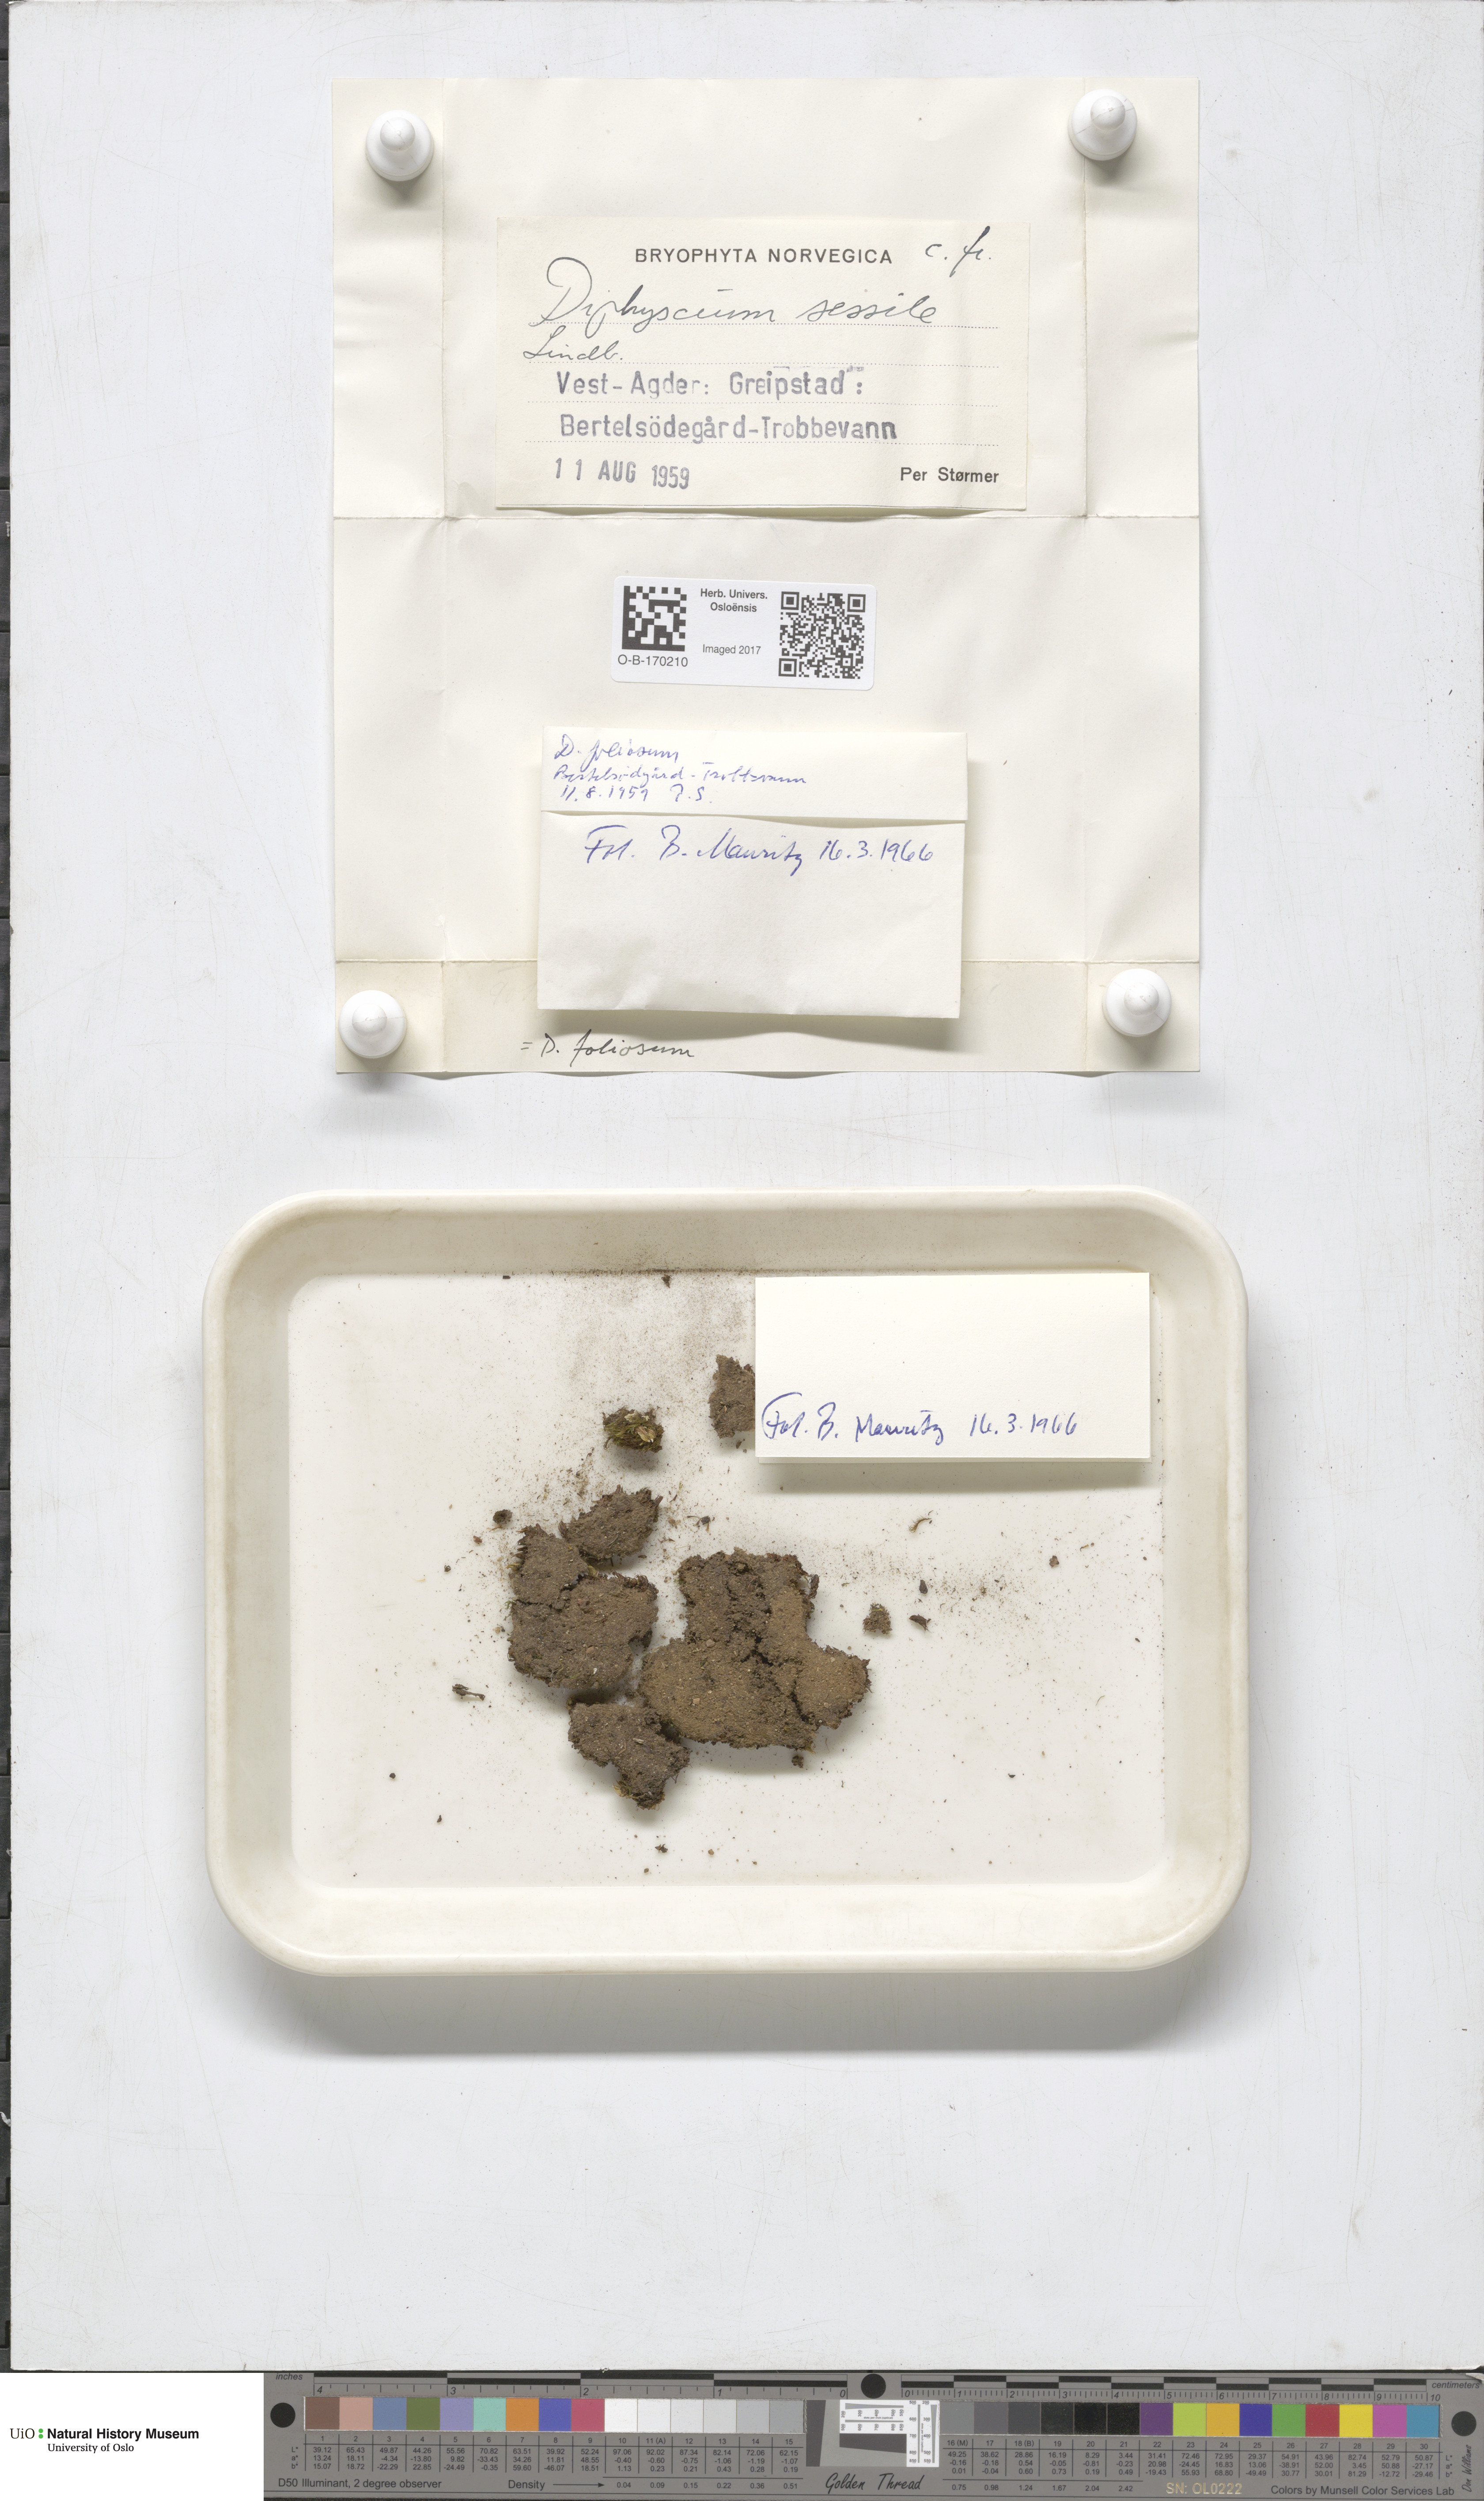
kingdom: Plantae
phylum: Bryophyta
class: Bryopsida
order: Diphysciales
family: Diphysciaceae
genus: Diphyscium
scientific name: Diphyscium foliosum
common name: Nut moss
